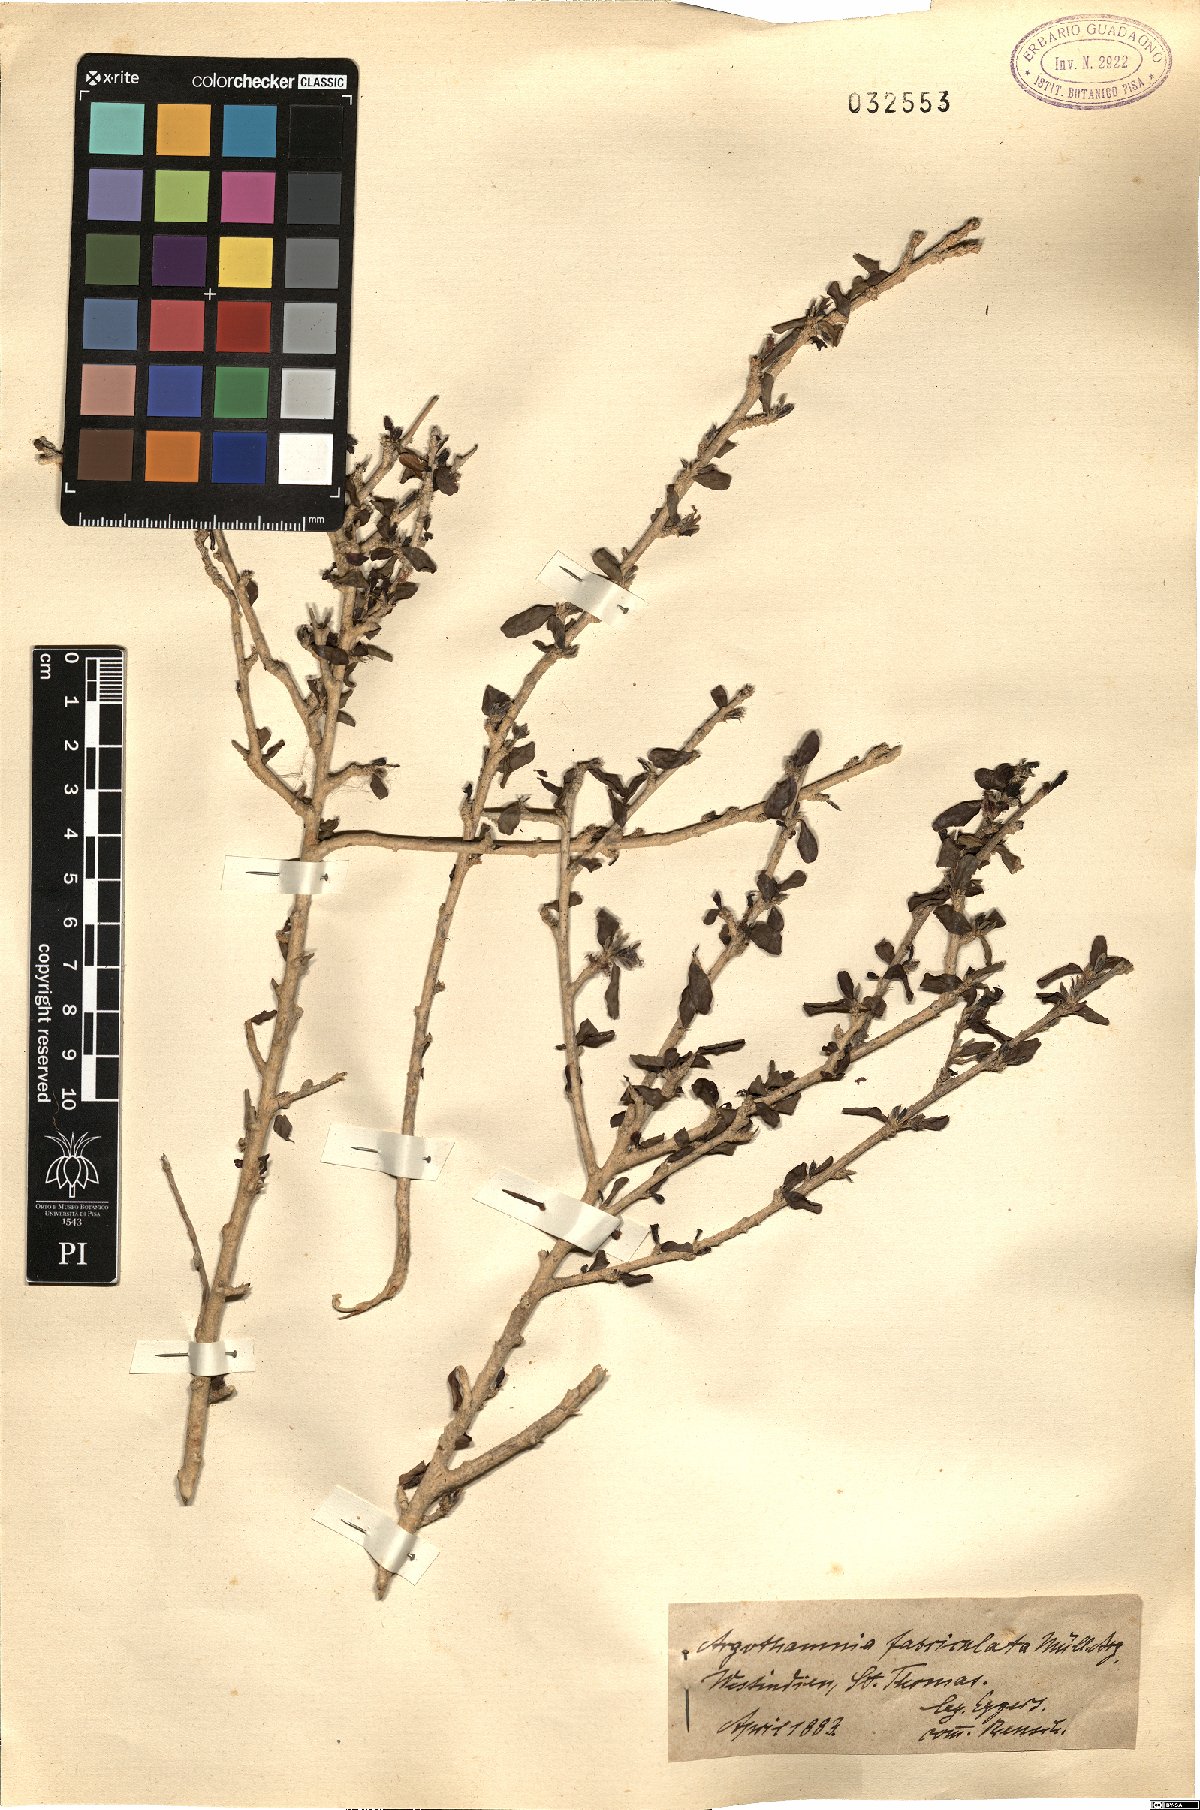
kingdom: Plantae
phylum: Tracheophyta
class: Magnoliopsida
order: Malpighiales
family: Euphorbiaceae
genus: Ditaxis
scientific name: Ditaxis fasciculata
